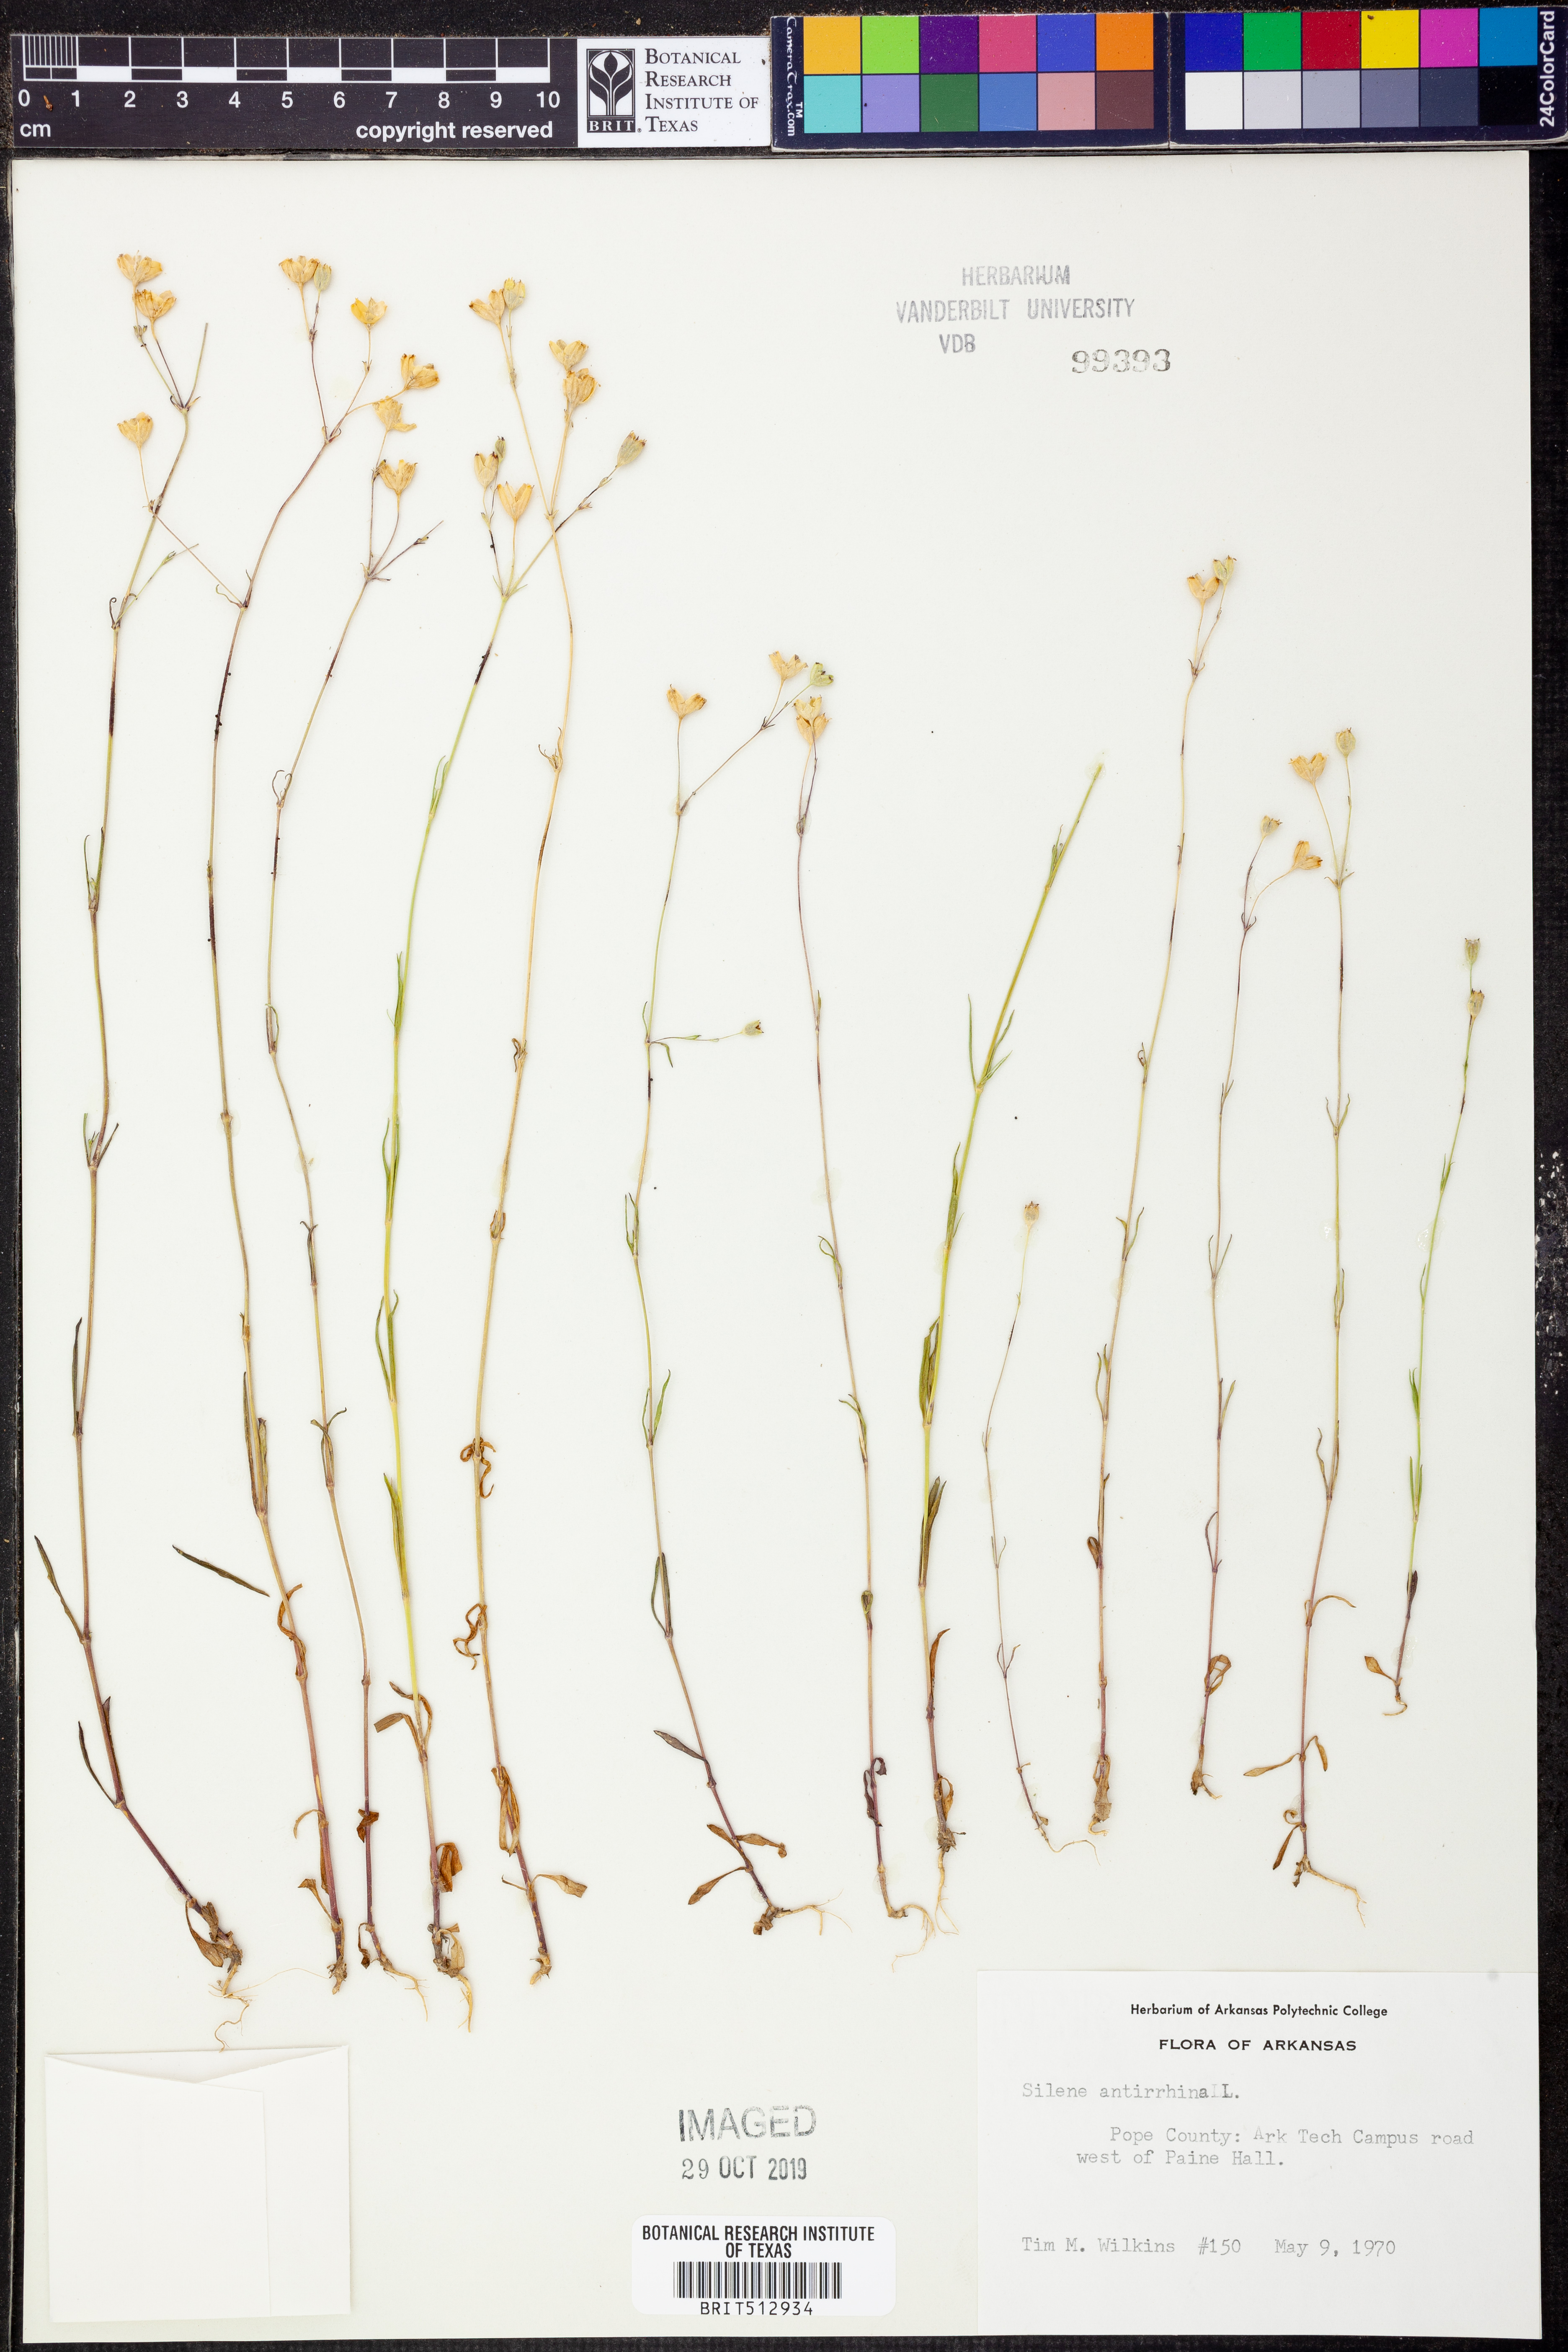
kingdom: Plantae
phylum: Tracheophyta
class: Magnoliopsida
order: Caryophyllales
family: Caryophyllaceae
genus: Silene
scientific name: Silene antirrhina
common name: Sleepy catchfly
